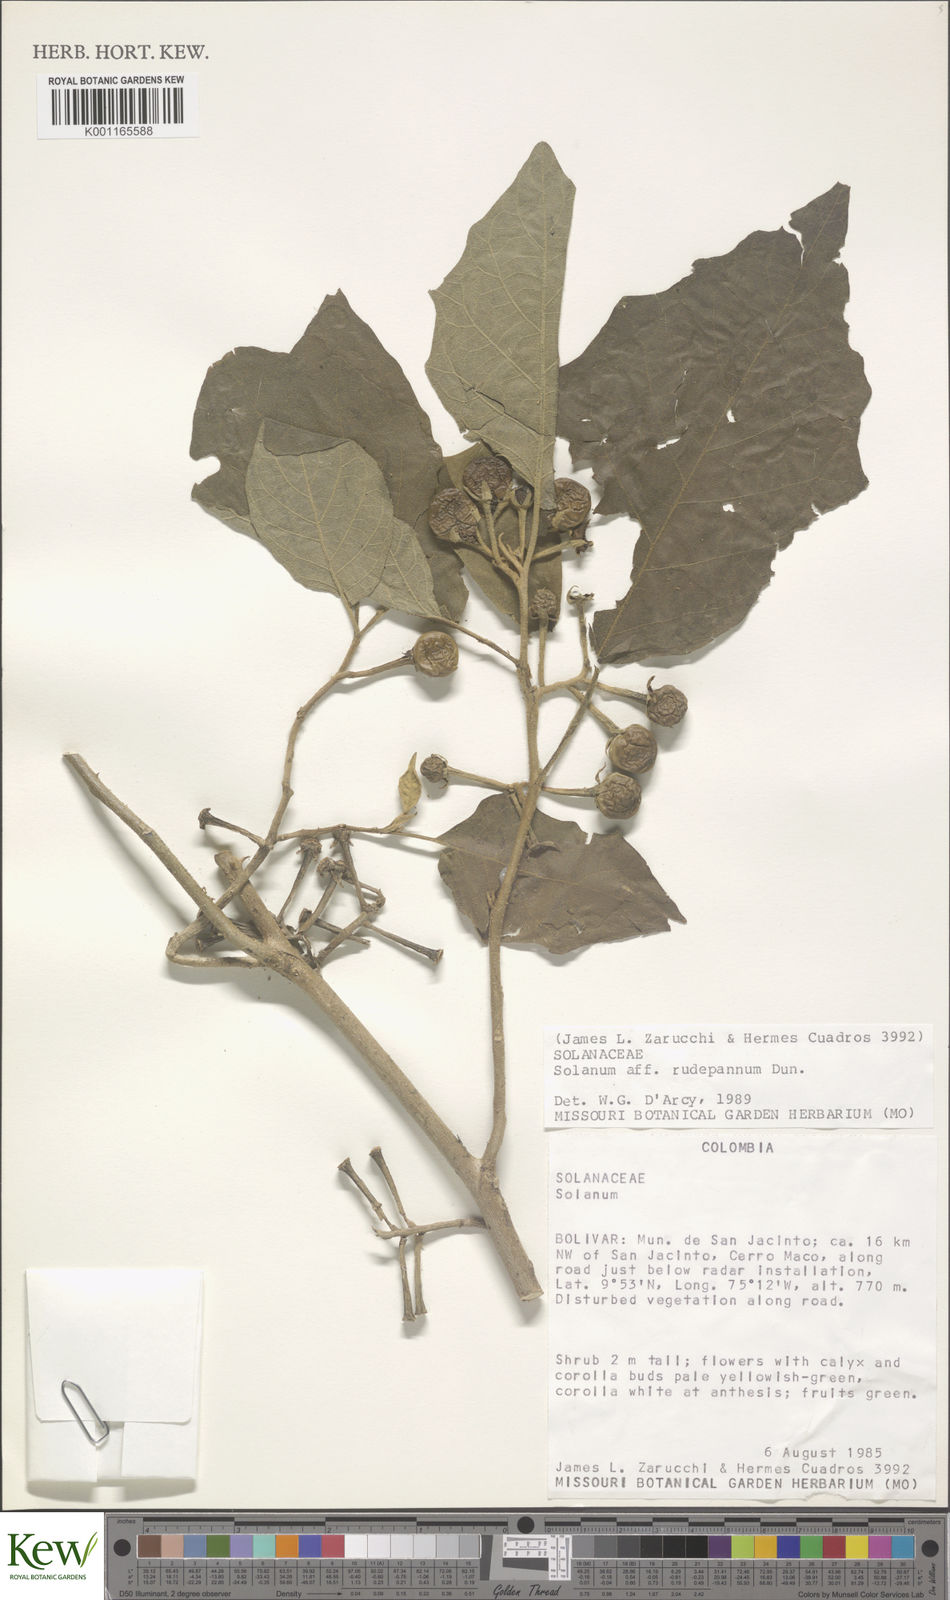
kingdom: Plantae
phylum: Tracheophyta
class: Magnoliopsida
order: Solanales
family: Solanaceae
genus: Solanum
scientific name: Solanum rude-pannum
